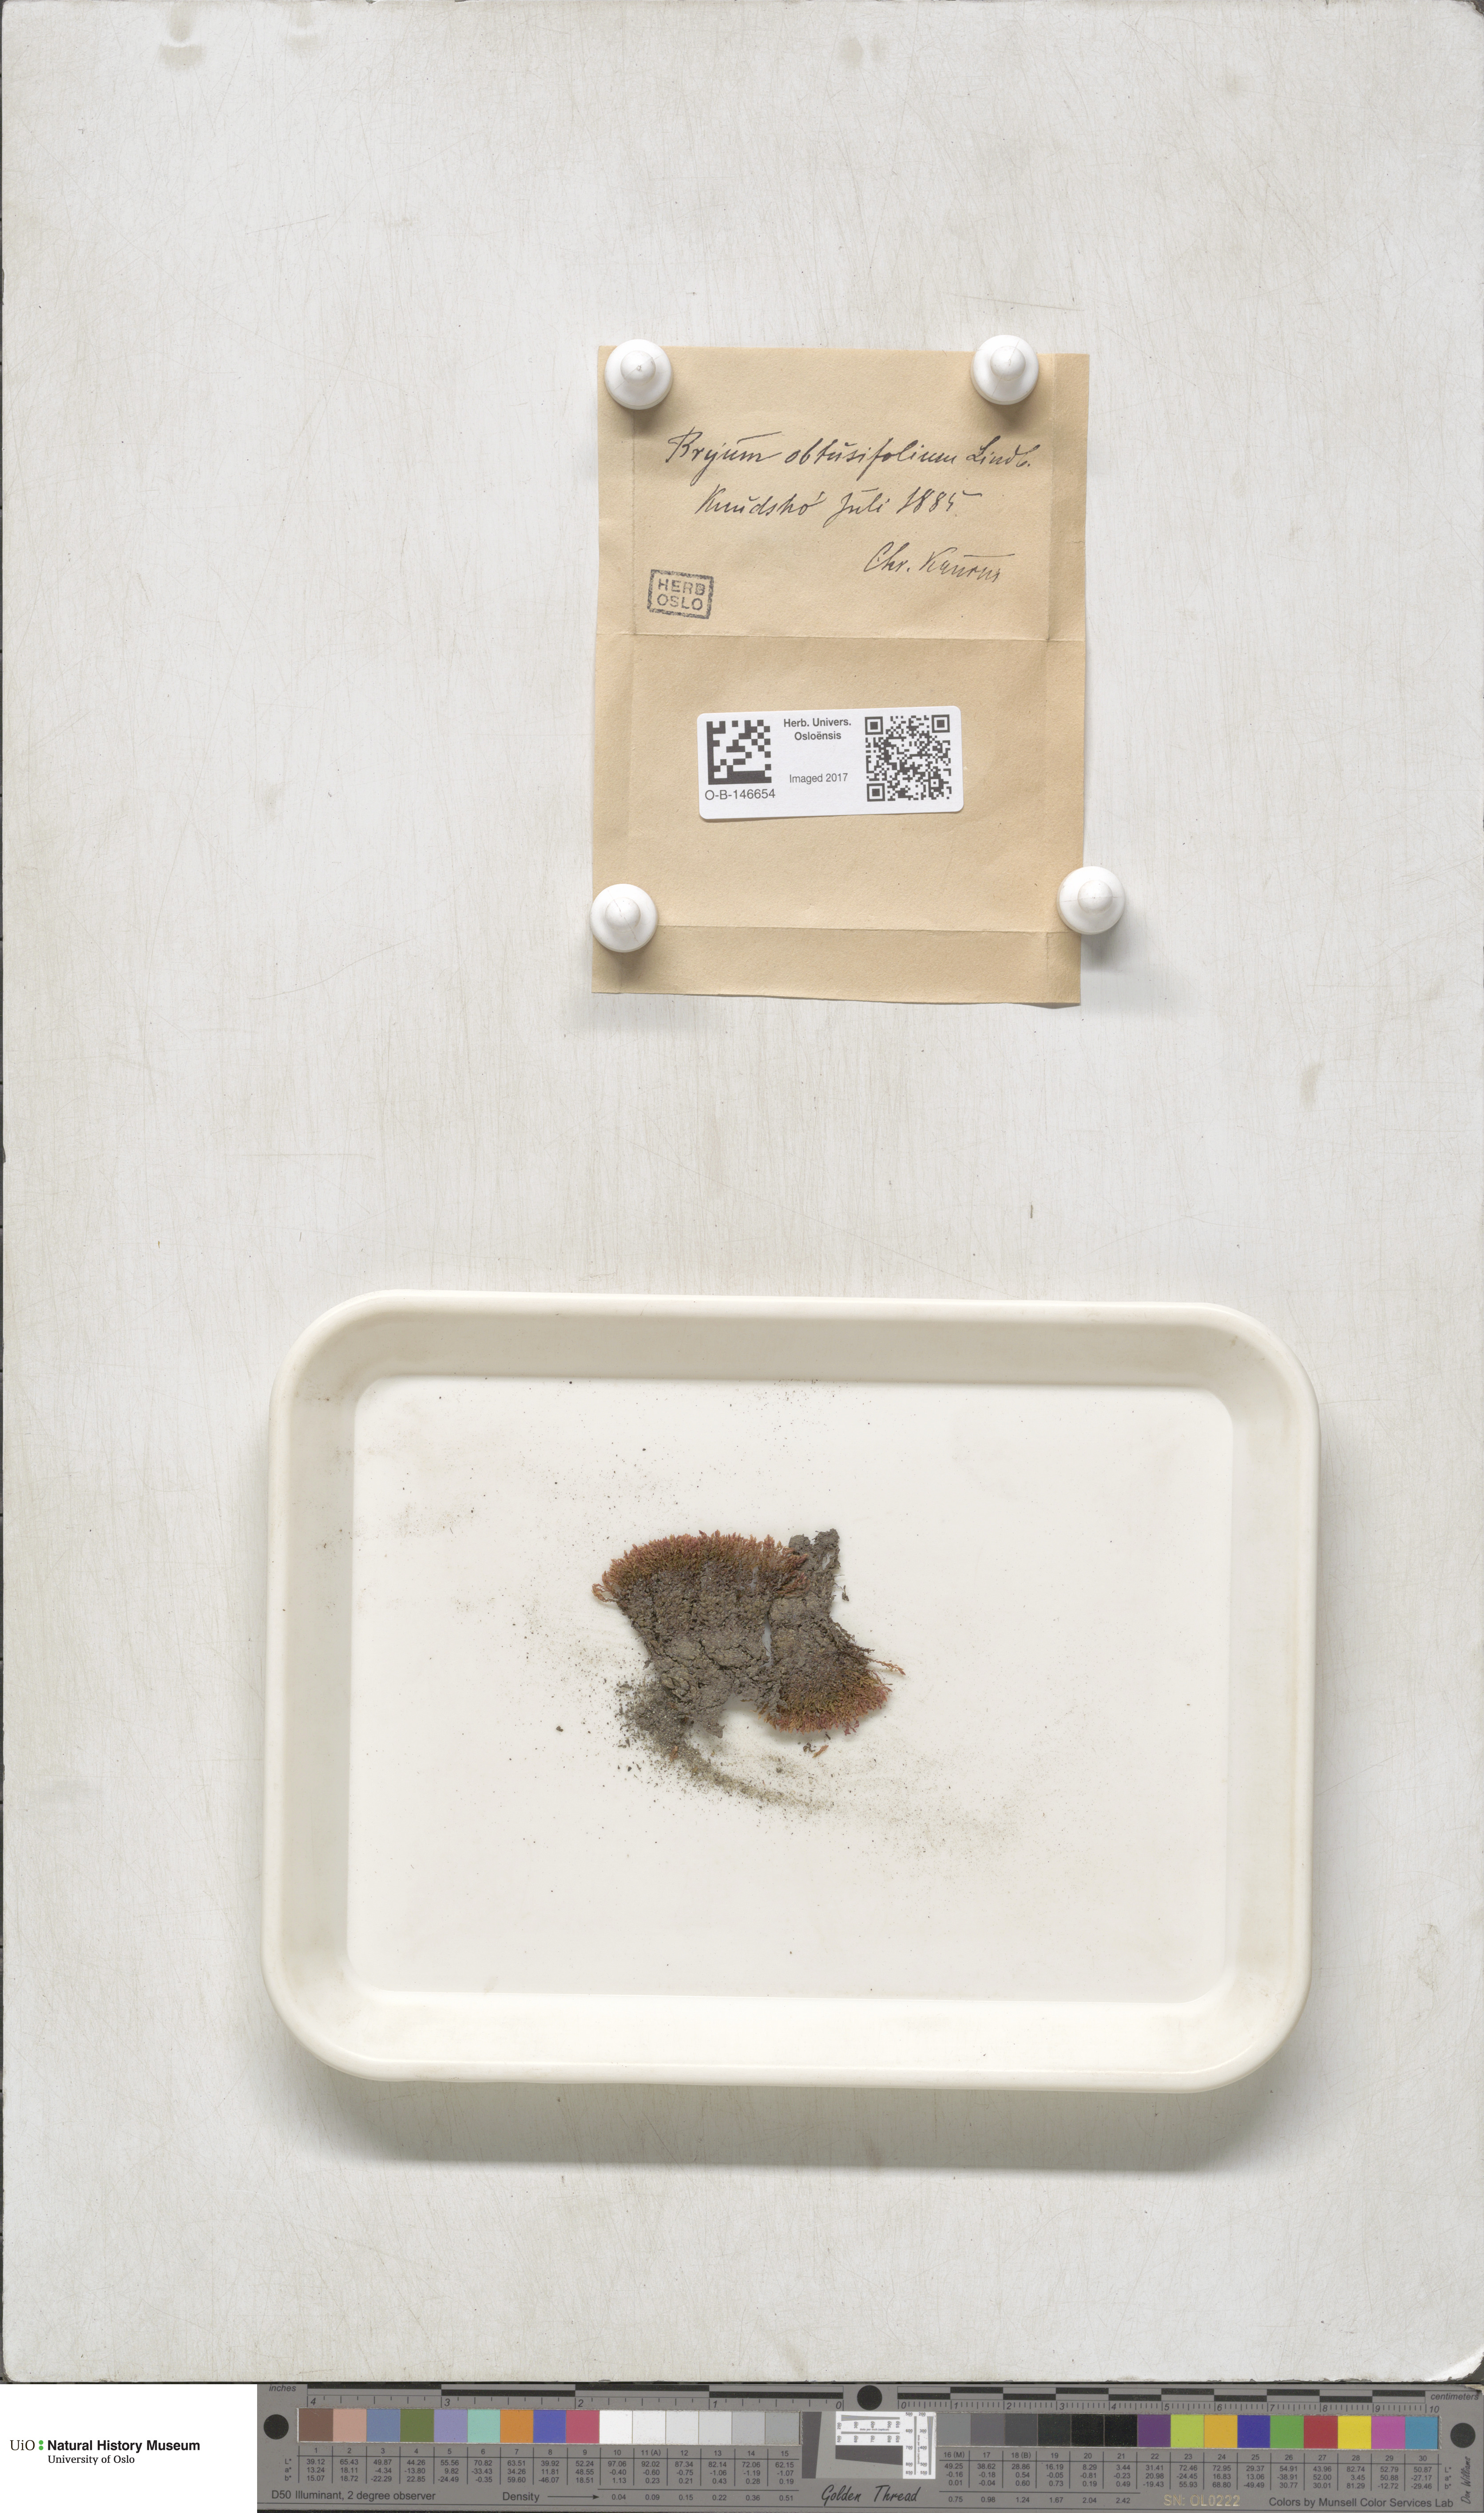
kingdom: Plantae
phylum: Bryophyta
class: Bryopsida
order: Bryales
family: Mniaceae
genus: Pohlia
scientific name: Pohlia obtusifolia
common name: Blunt nodding moss
